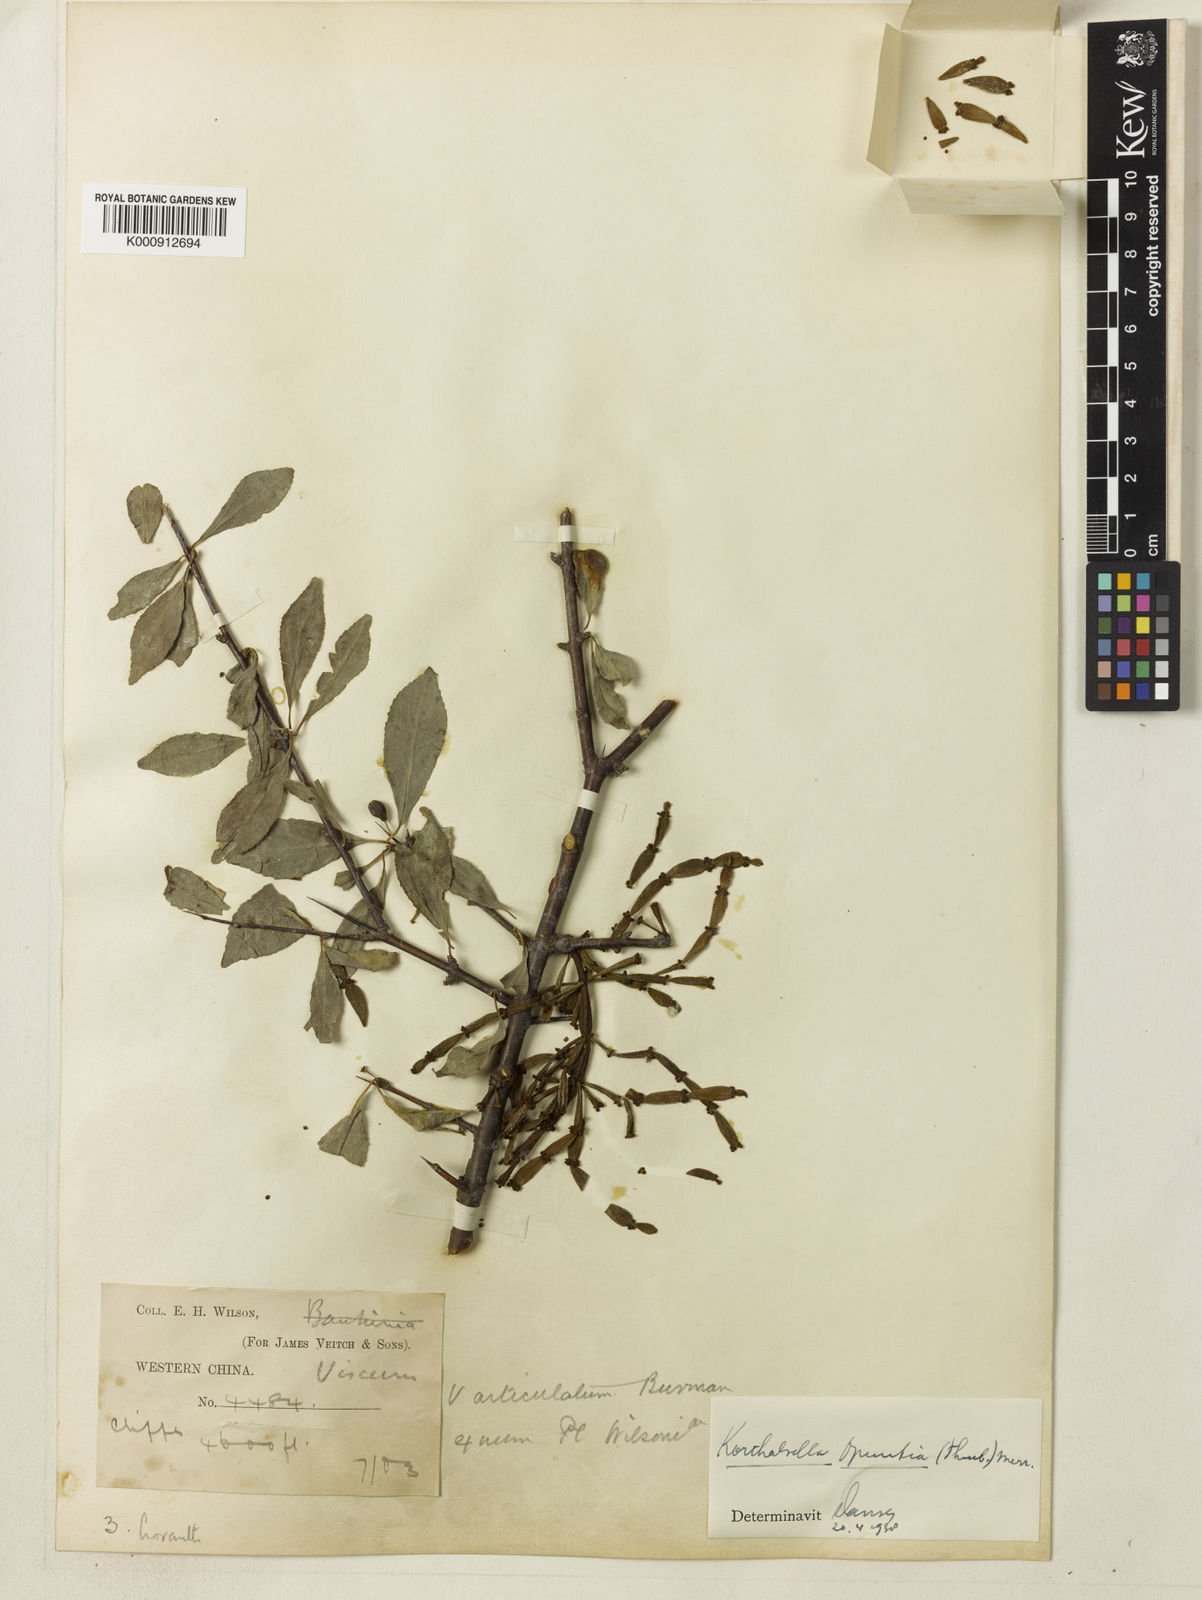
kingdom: Plantae
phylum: Tracheophyta
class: Magnoliopsida
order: Santalales
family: Viscaceae
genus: Korthalsella
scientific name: Korthalsella japonica
